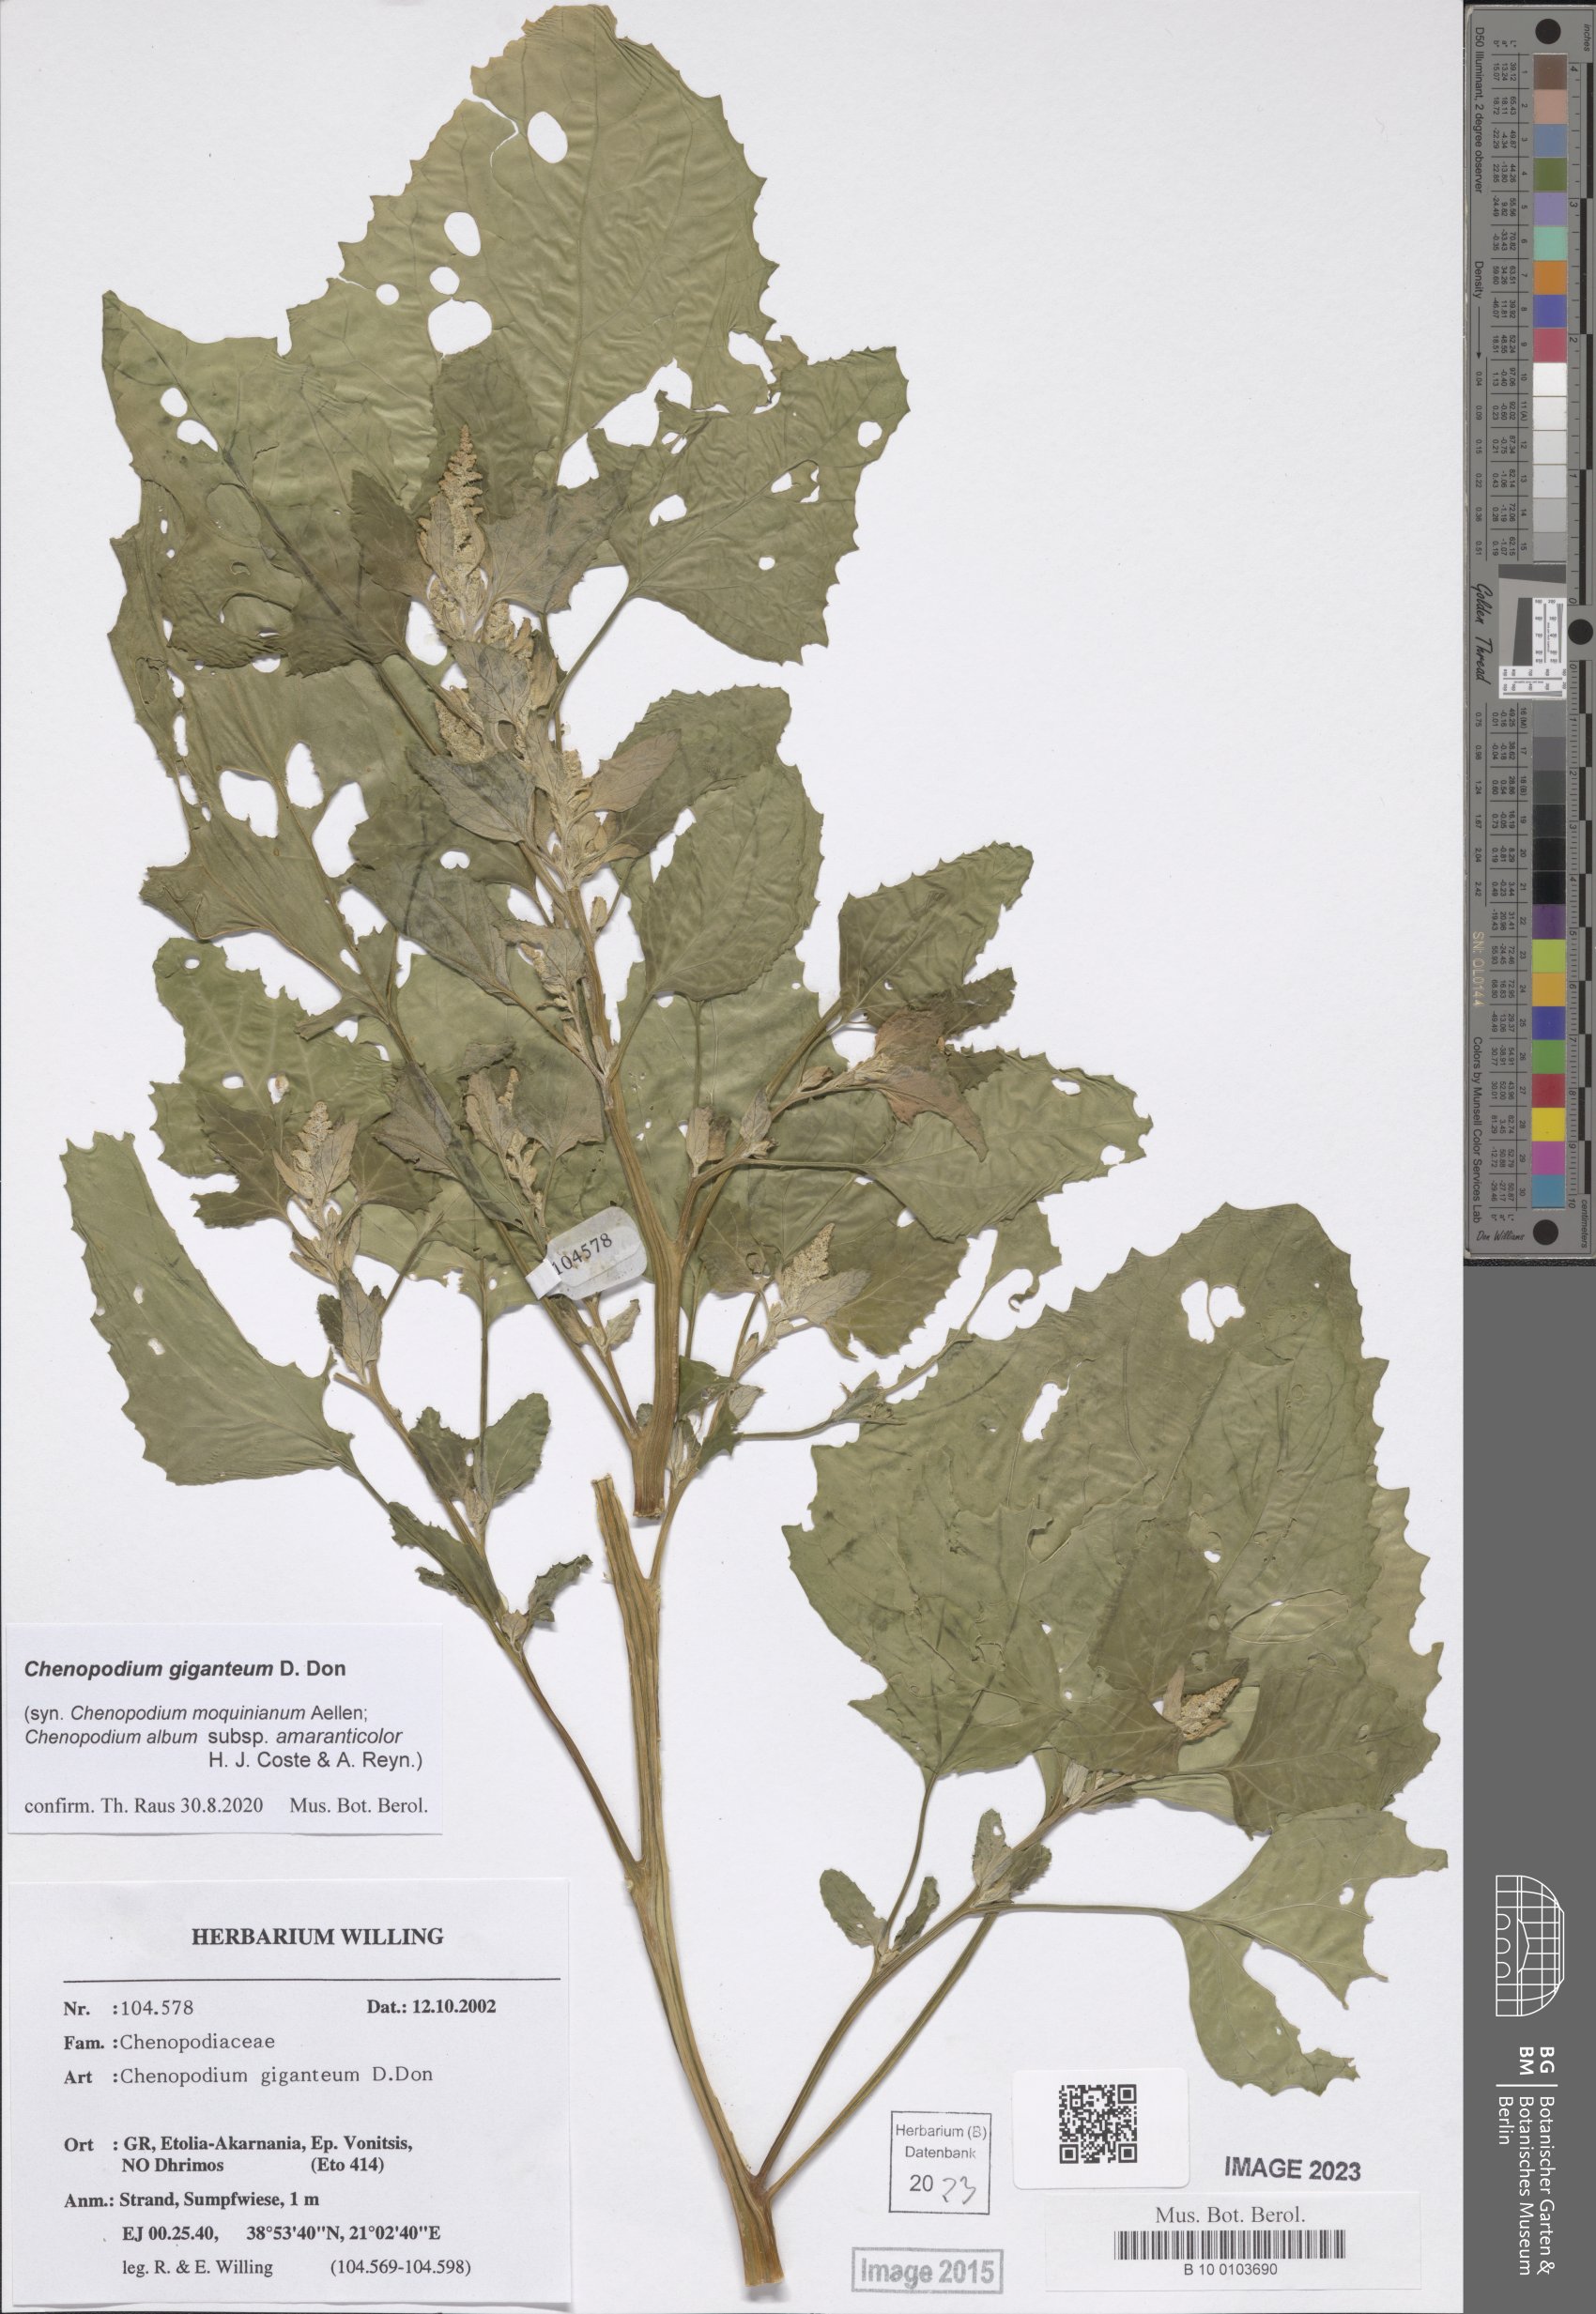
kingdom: Plantae
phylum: Tracheophyta
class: Magnoliopsida
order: Caryophyllales
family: Amaranthaceae
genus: Chenopodium
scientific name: Chenopodium giganteum
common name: Magentaspreen
